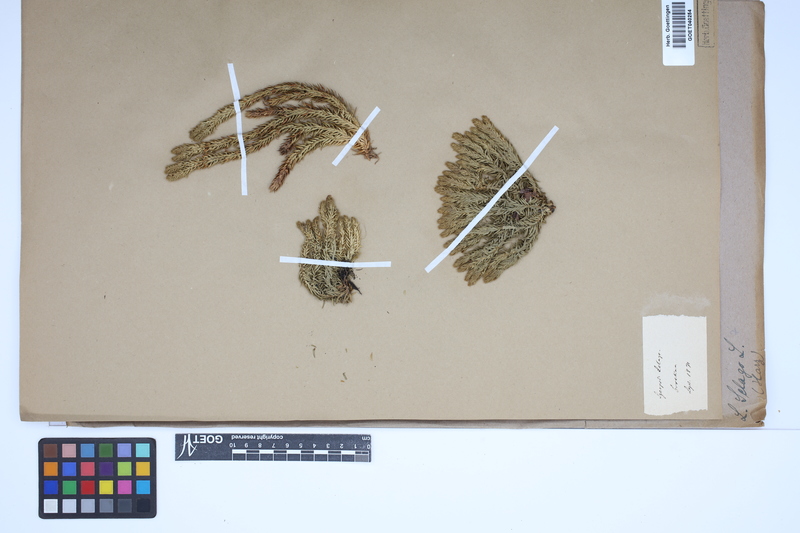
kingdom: Plantae
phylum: Tracheophyta
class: Lycopodiopsida
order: Lycopodiales
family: Lycopodiaceae
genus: Huperzia
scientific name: Huperzia selago
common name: Northern firmoss
